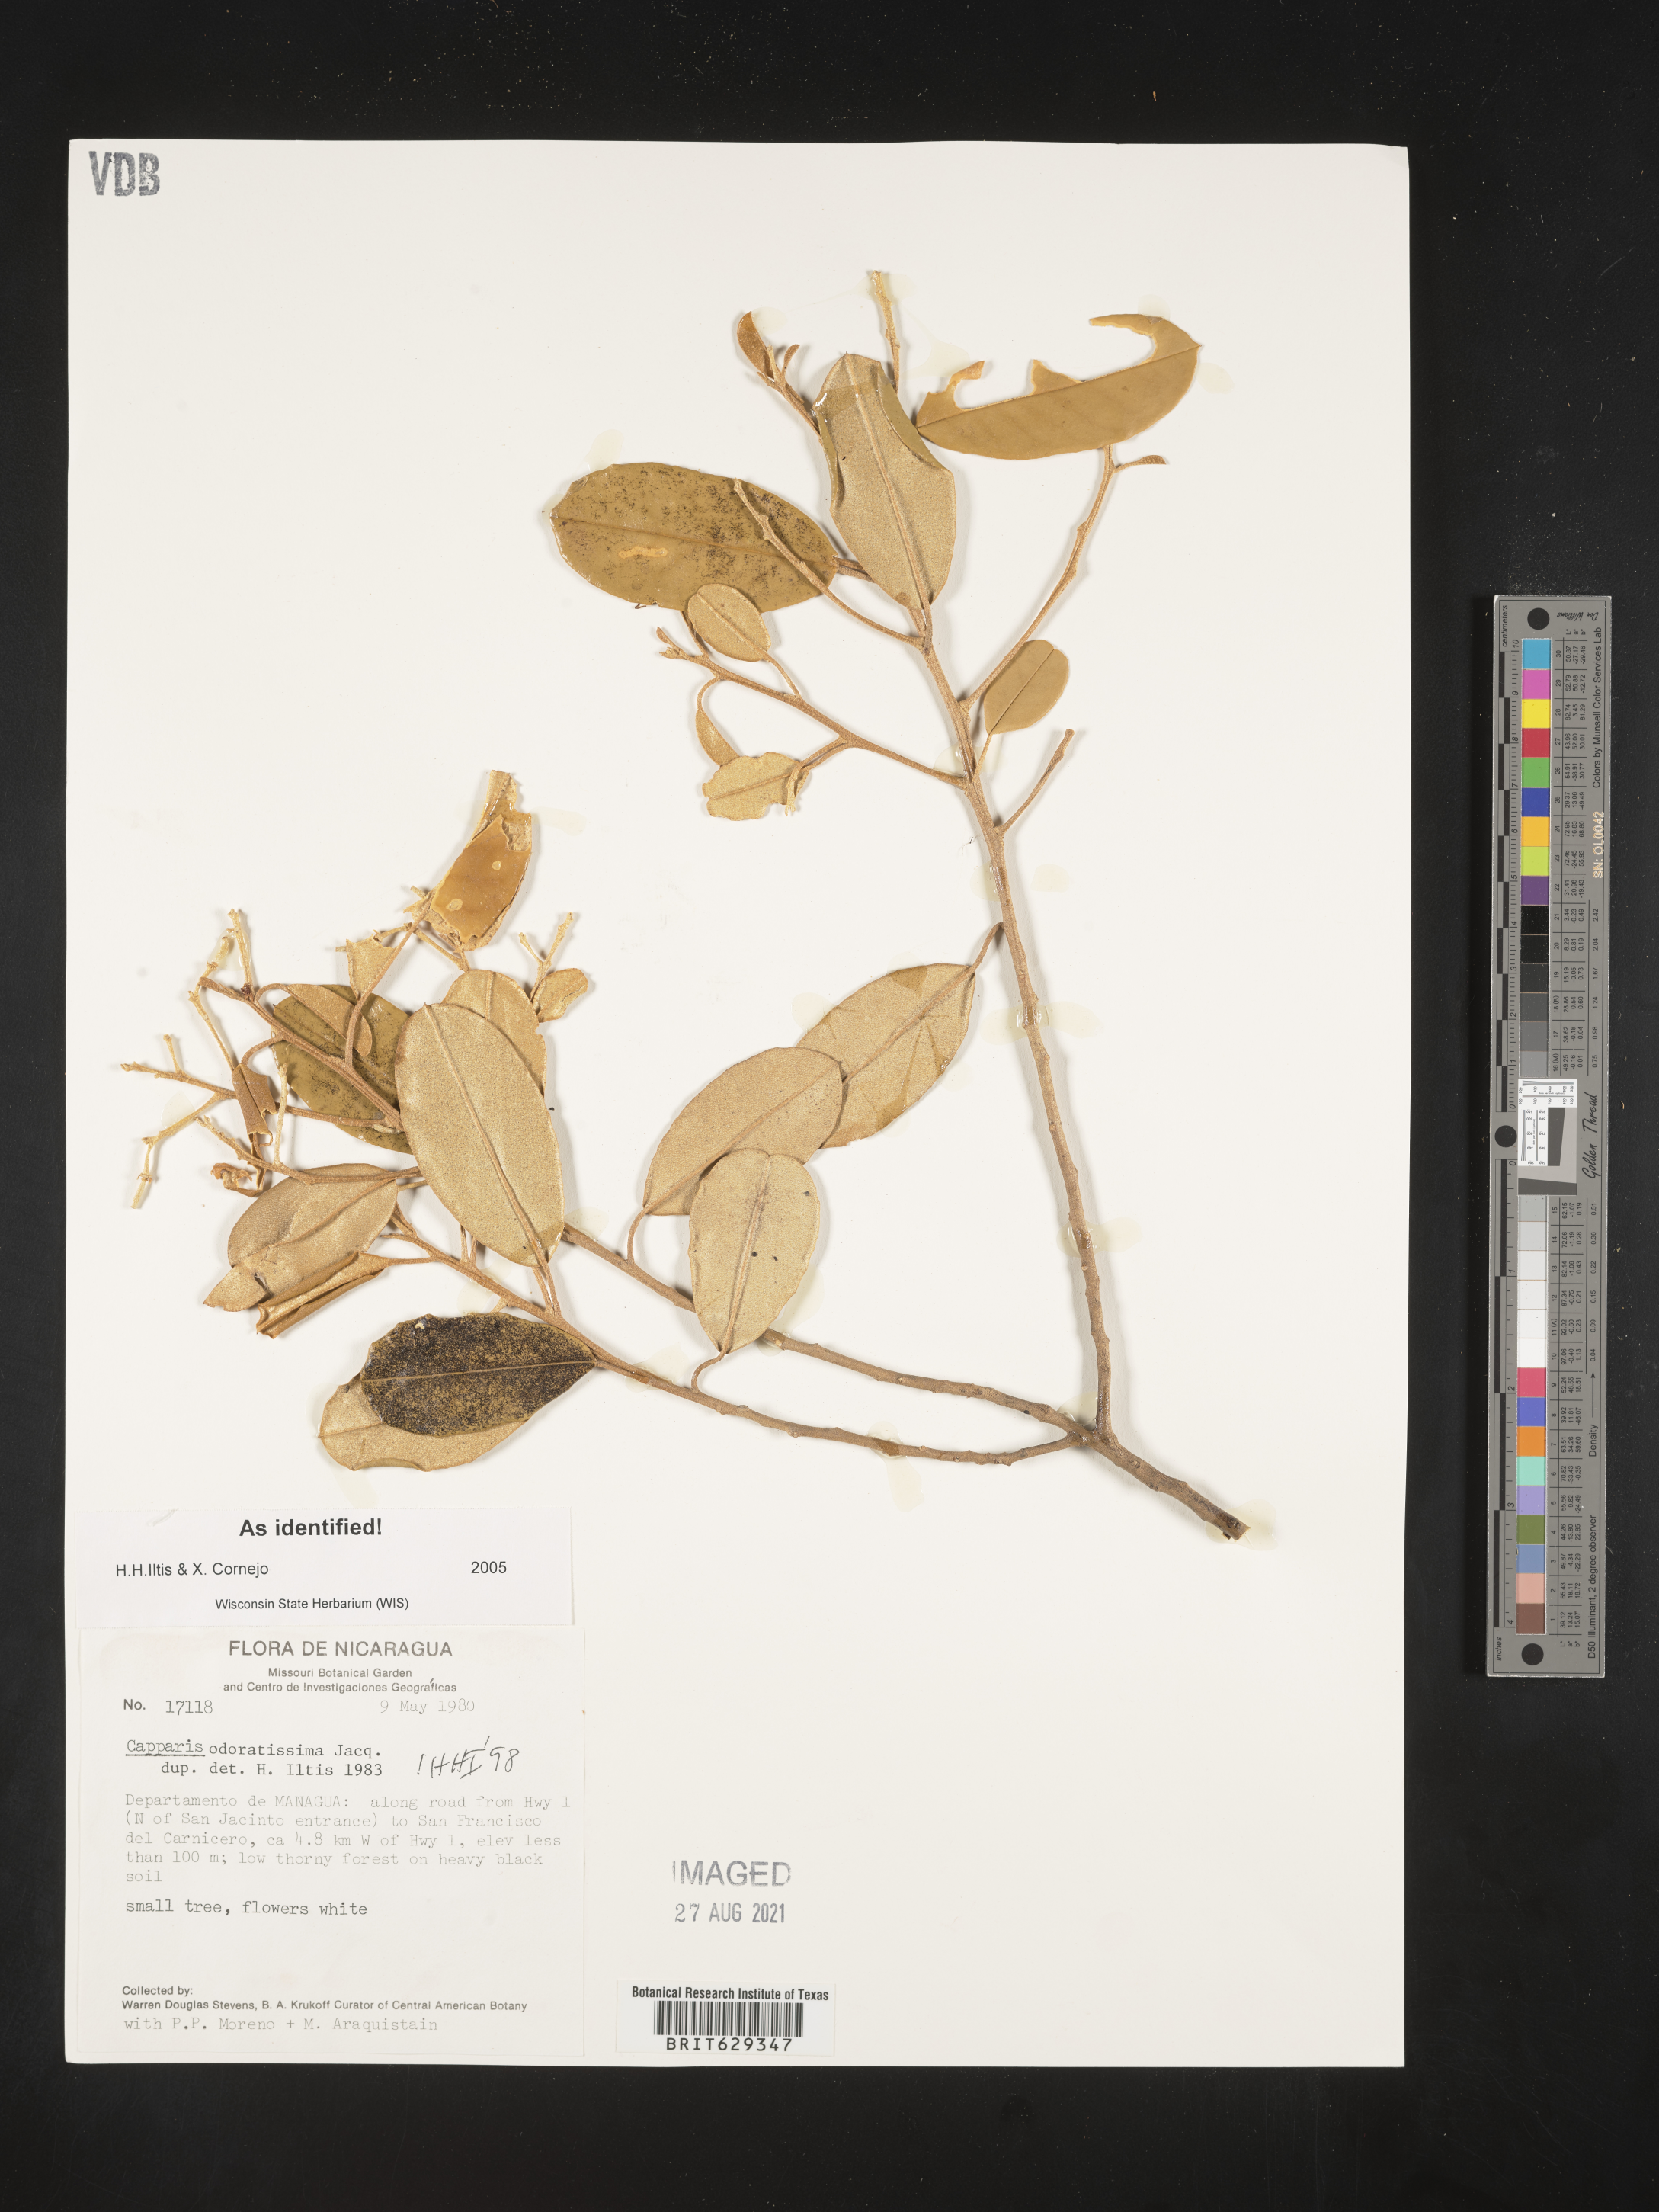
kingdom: Plantae
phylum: Tracheophyta
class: Magnoliopsida
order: Brassicales
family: Capparaceae
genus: Quadrella
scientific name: Quadrella odoratissima
